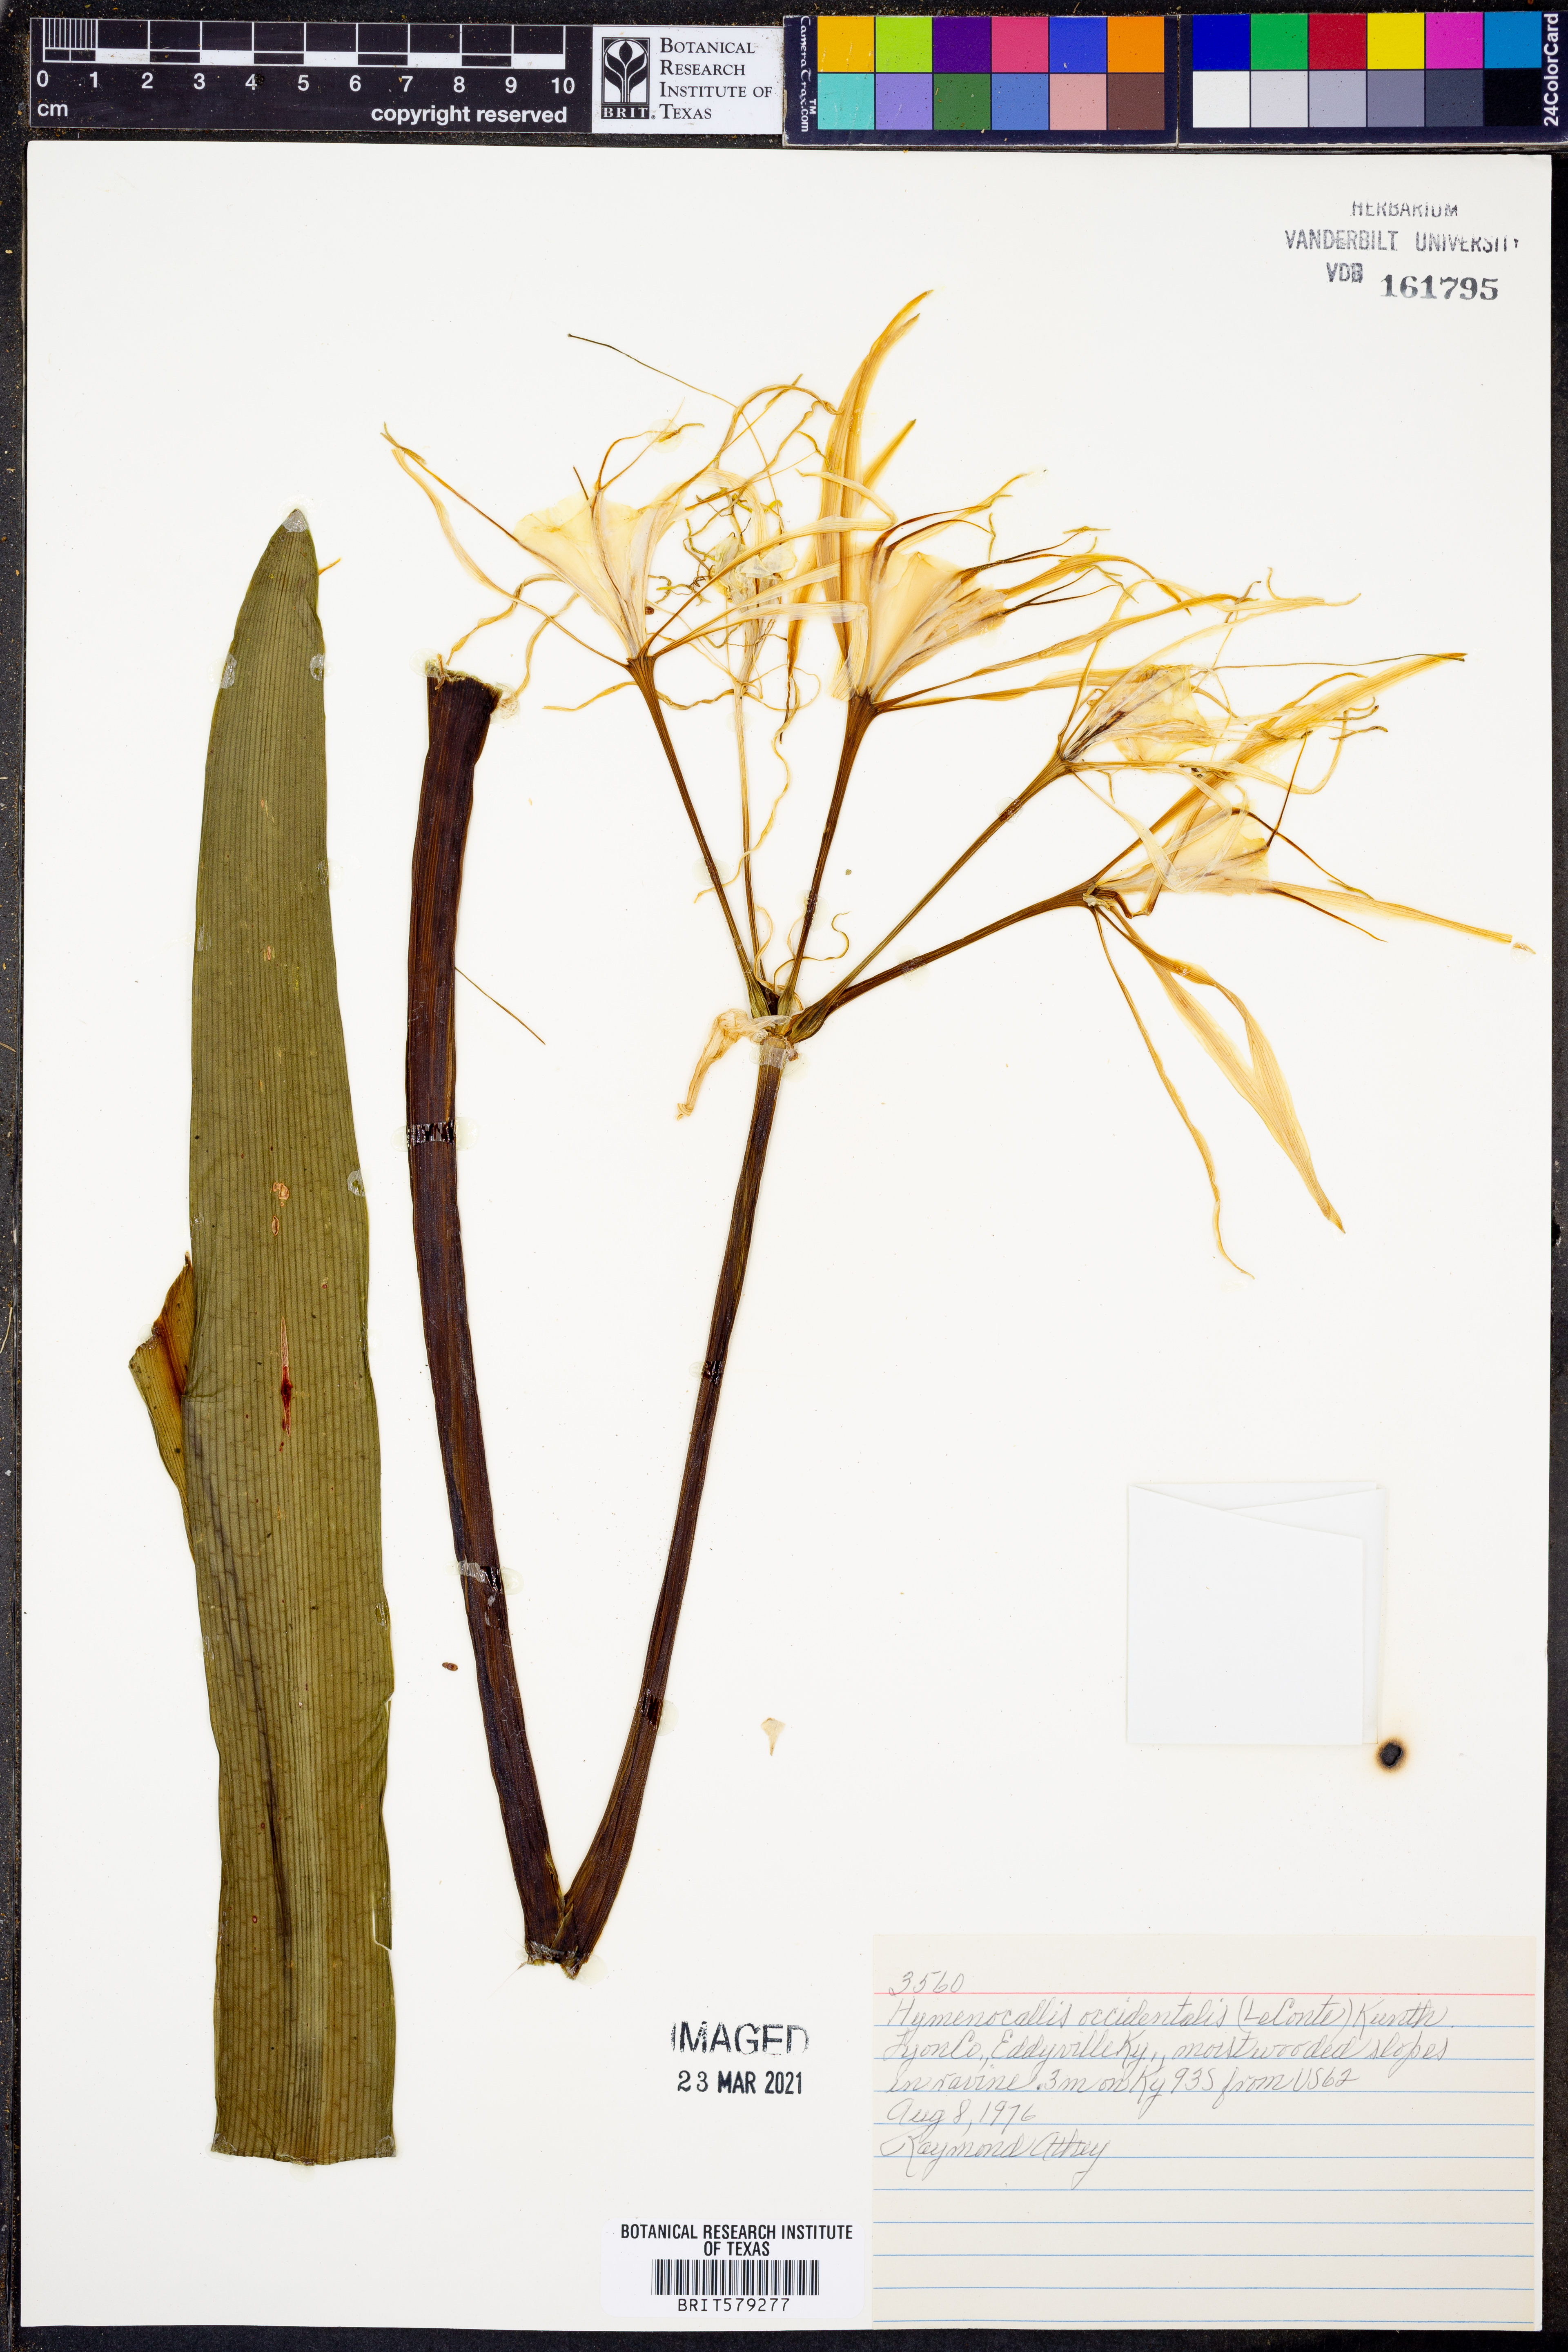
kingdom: Plantae
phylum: Tracheophyta
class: Liliopsida
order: Asparagales
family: Amaryllidaceae
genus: Hymenocallis
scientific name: Hymenocallis occidentalis
